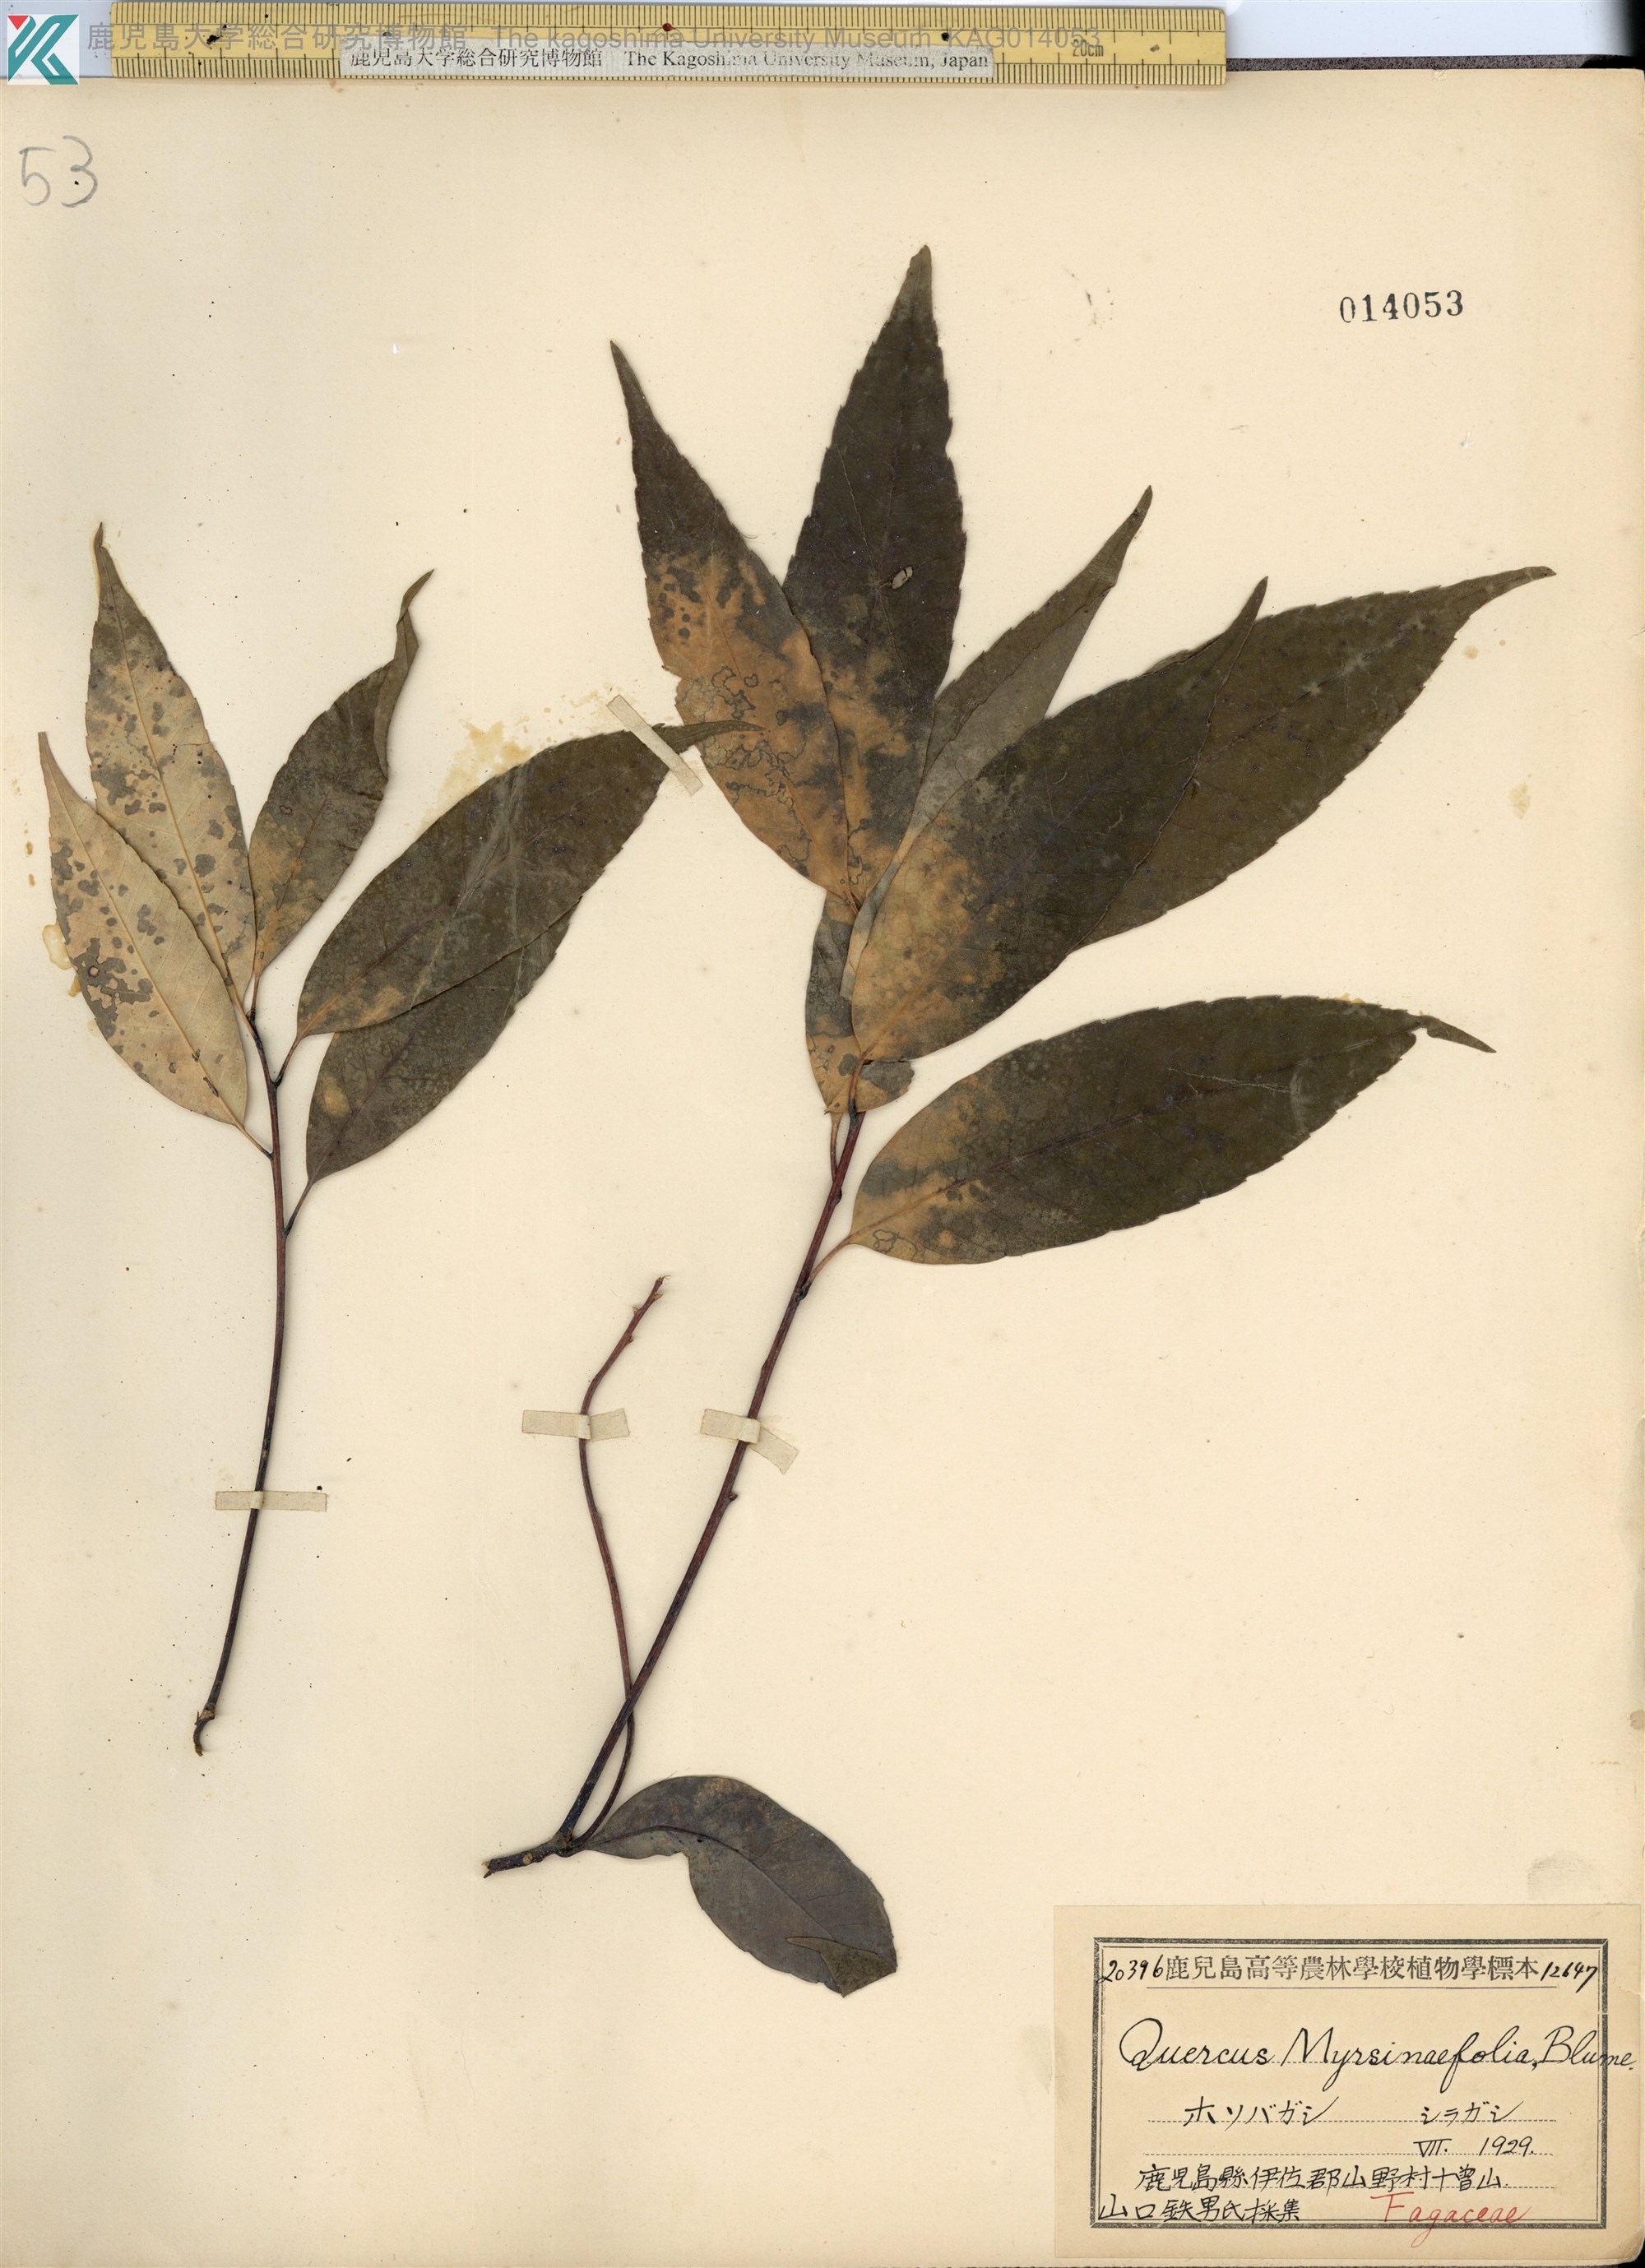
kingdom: Plantae
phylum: Tracheophyta
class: Magnoliopsida
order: Fagales
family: Fagaceae
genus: Quercus
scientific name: Quercus myrsinaefolia
